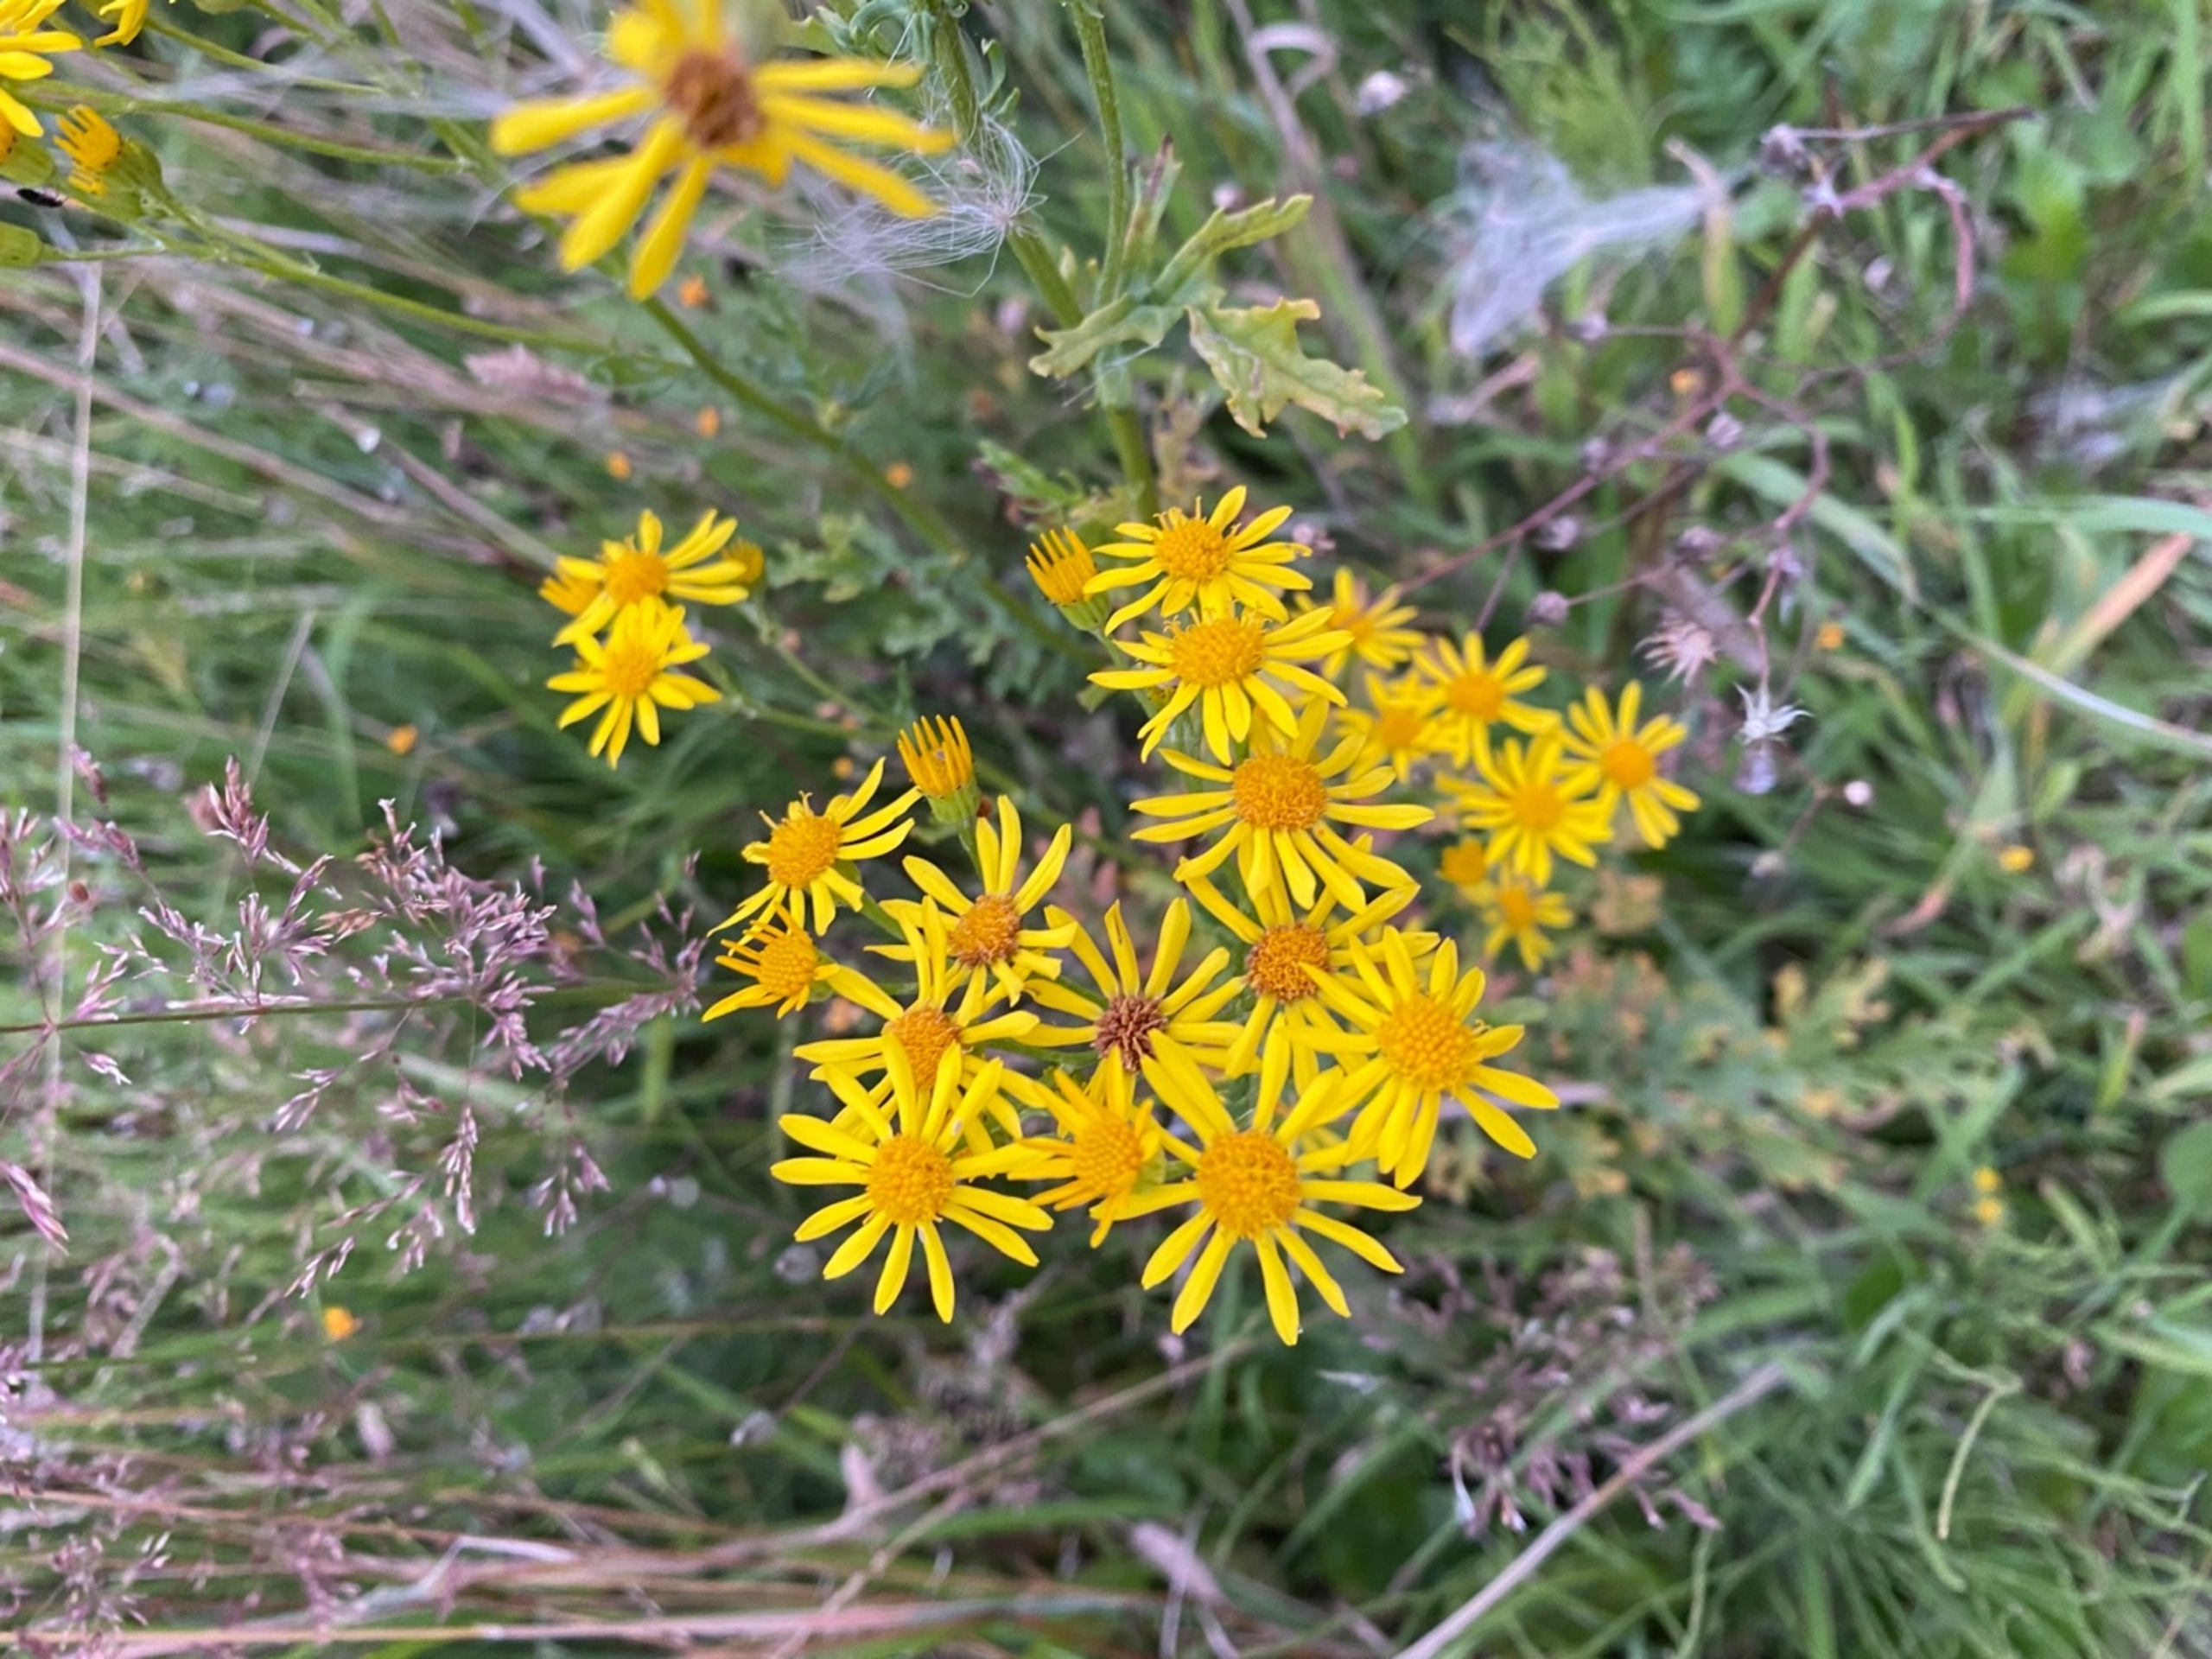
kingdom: Plantae
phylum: Tracheophyta
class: Magnoliopsida
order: Asterales
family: Asteraceae
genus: Jacobaea
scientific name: Jacobaea vulgaris
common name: Eng-brandbæger
